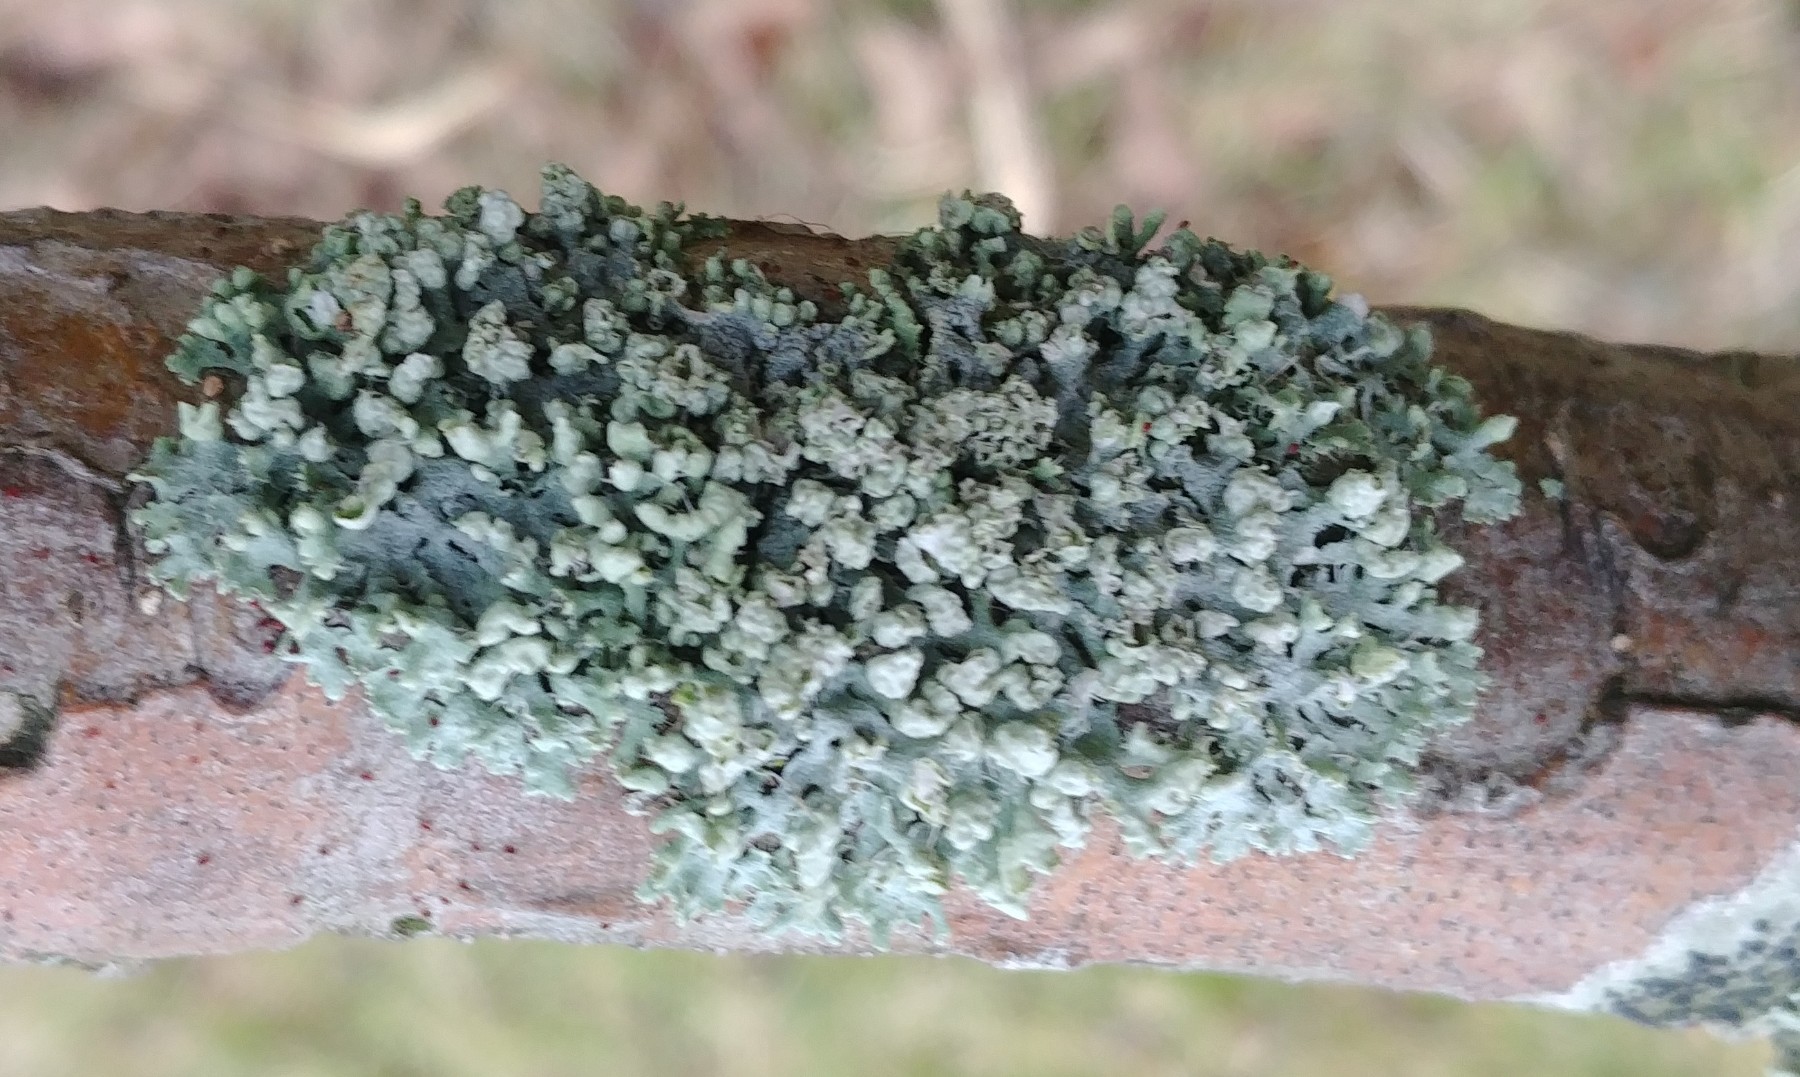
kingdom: Fungi
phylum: Ascomycota
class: Lecanoromycetes
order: Caliciales
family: Physciaceae
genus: Physcia
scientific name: Physcia adscendens
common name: hætte-rosetlav
